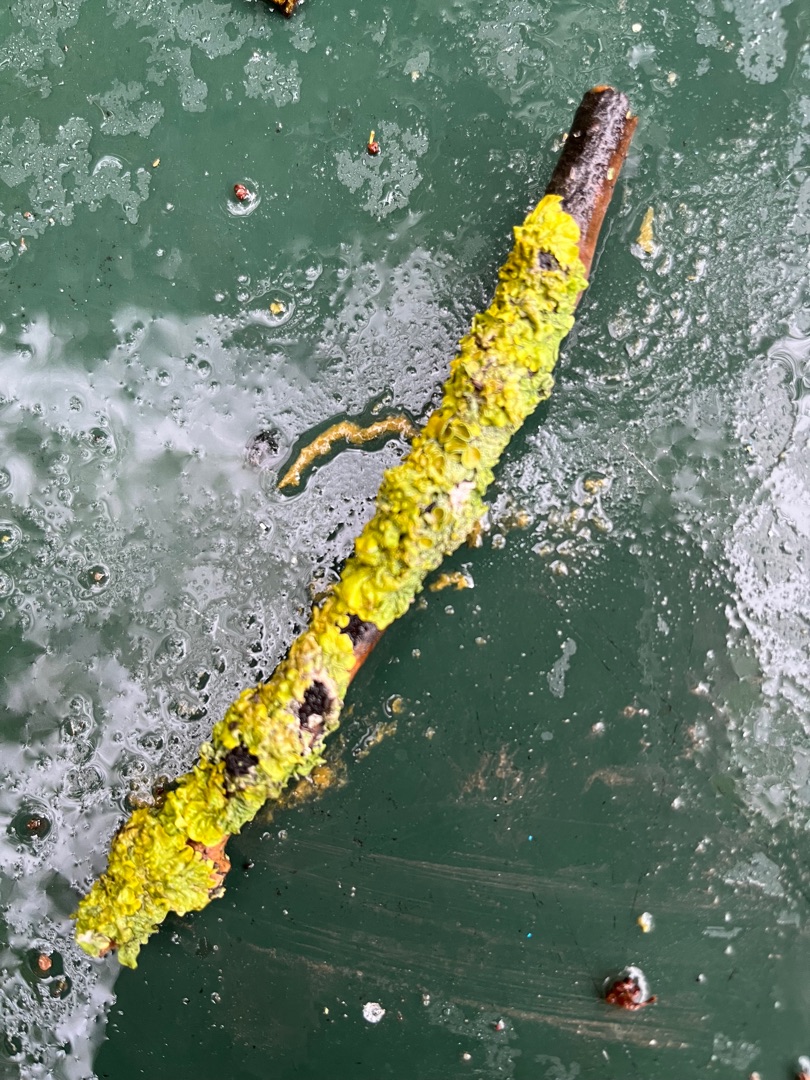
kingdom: Fungi
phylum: Ascomycota
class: Lecanoromycetes
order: Teloschistales
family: Teloschistaceae
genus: Xanthoria
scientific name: Xanthoria parietina
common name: Almindelig væggelav
